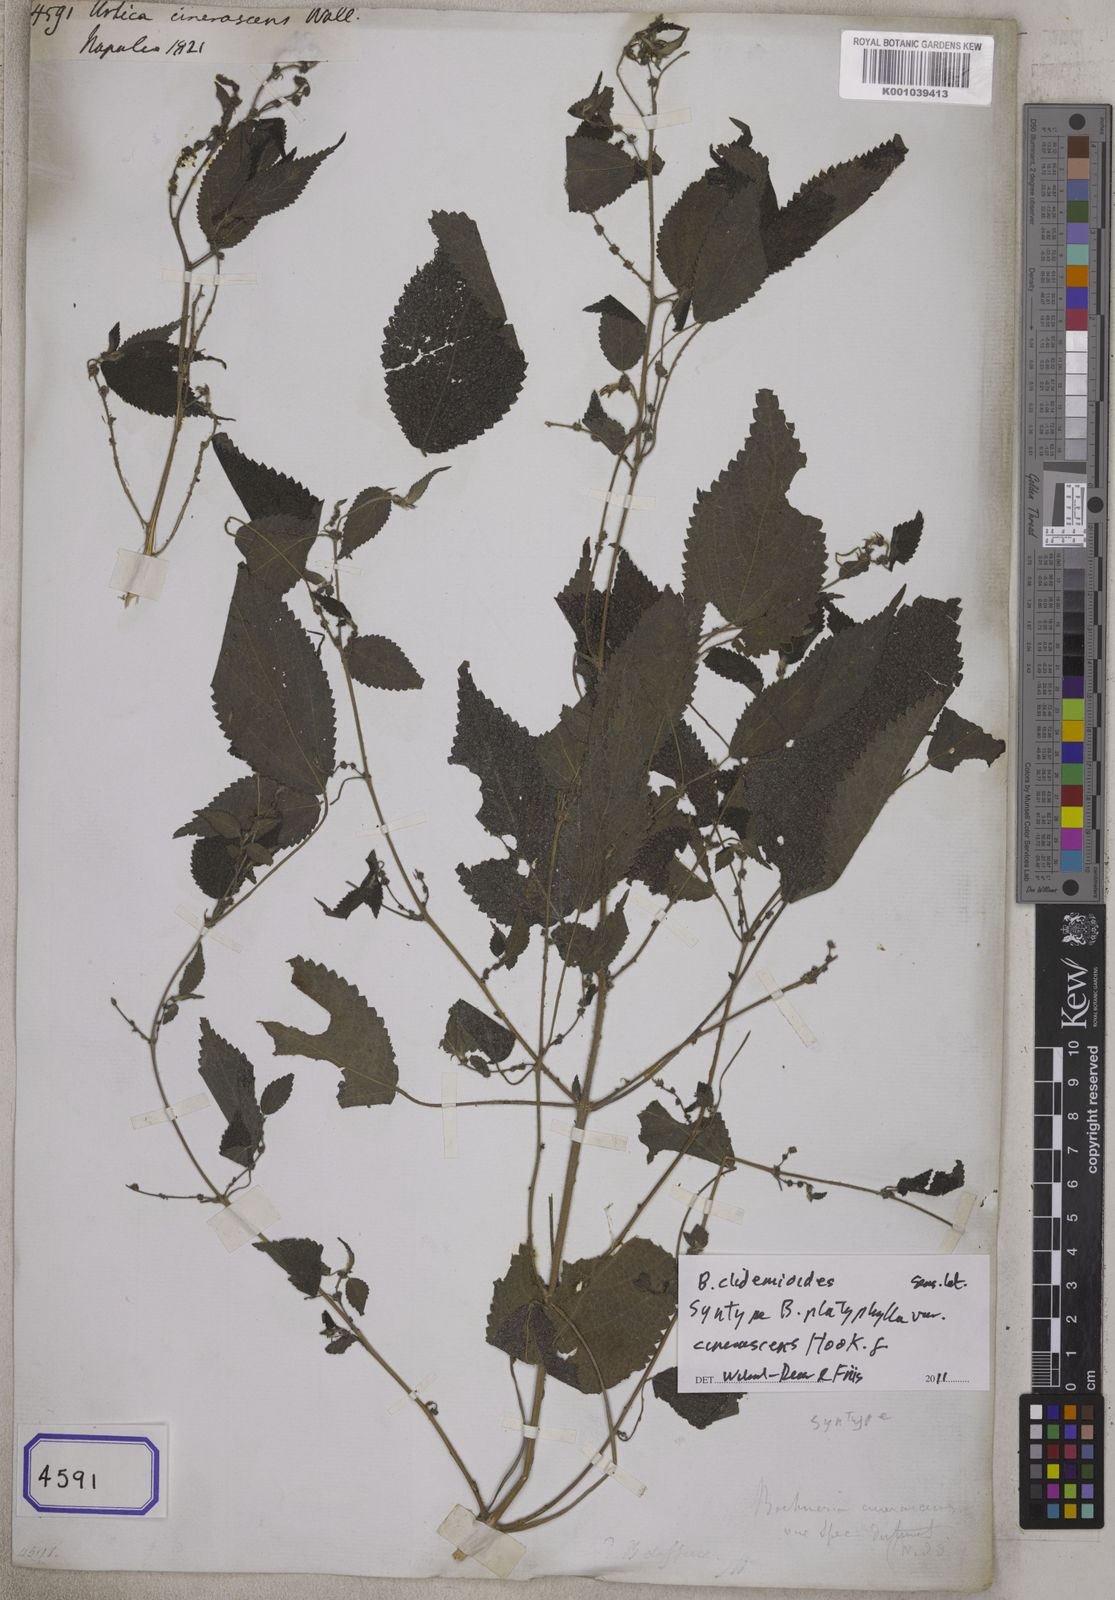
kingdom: Plantae
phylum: Tracheophyta
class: Magnoliopsida
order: Rosales
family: Urticaceae
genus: Boehmeria
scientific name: Boehmeria virgata
